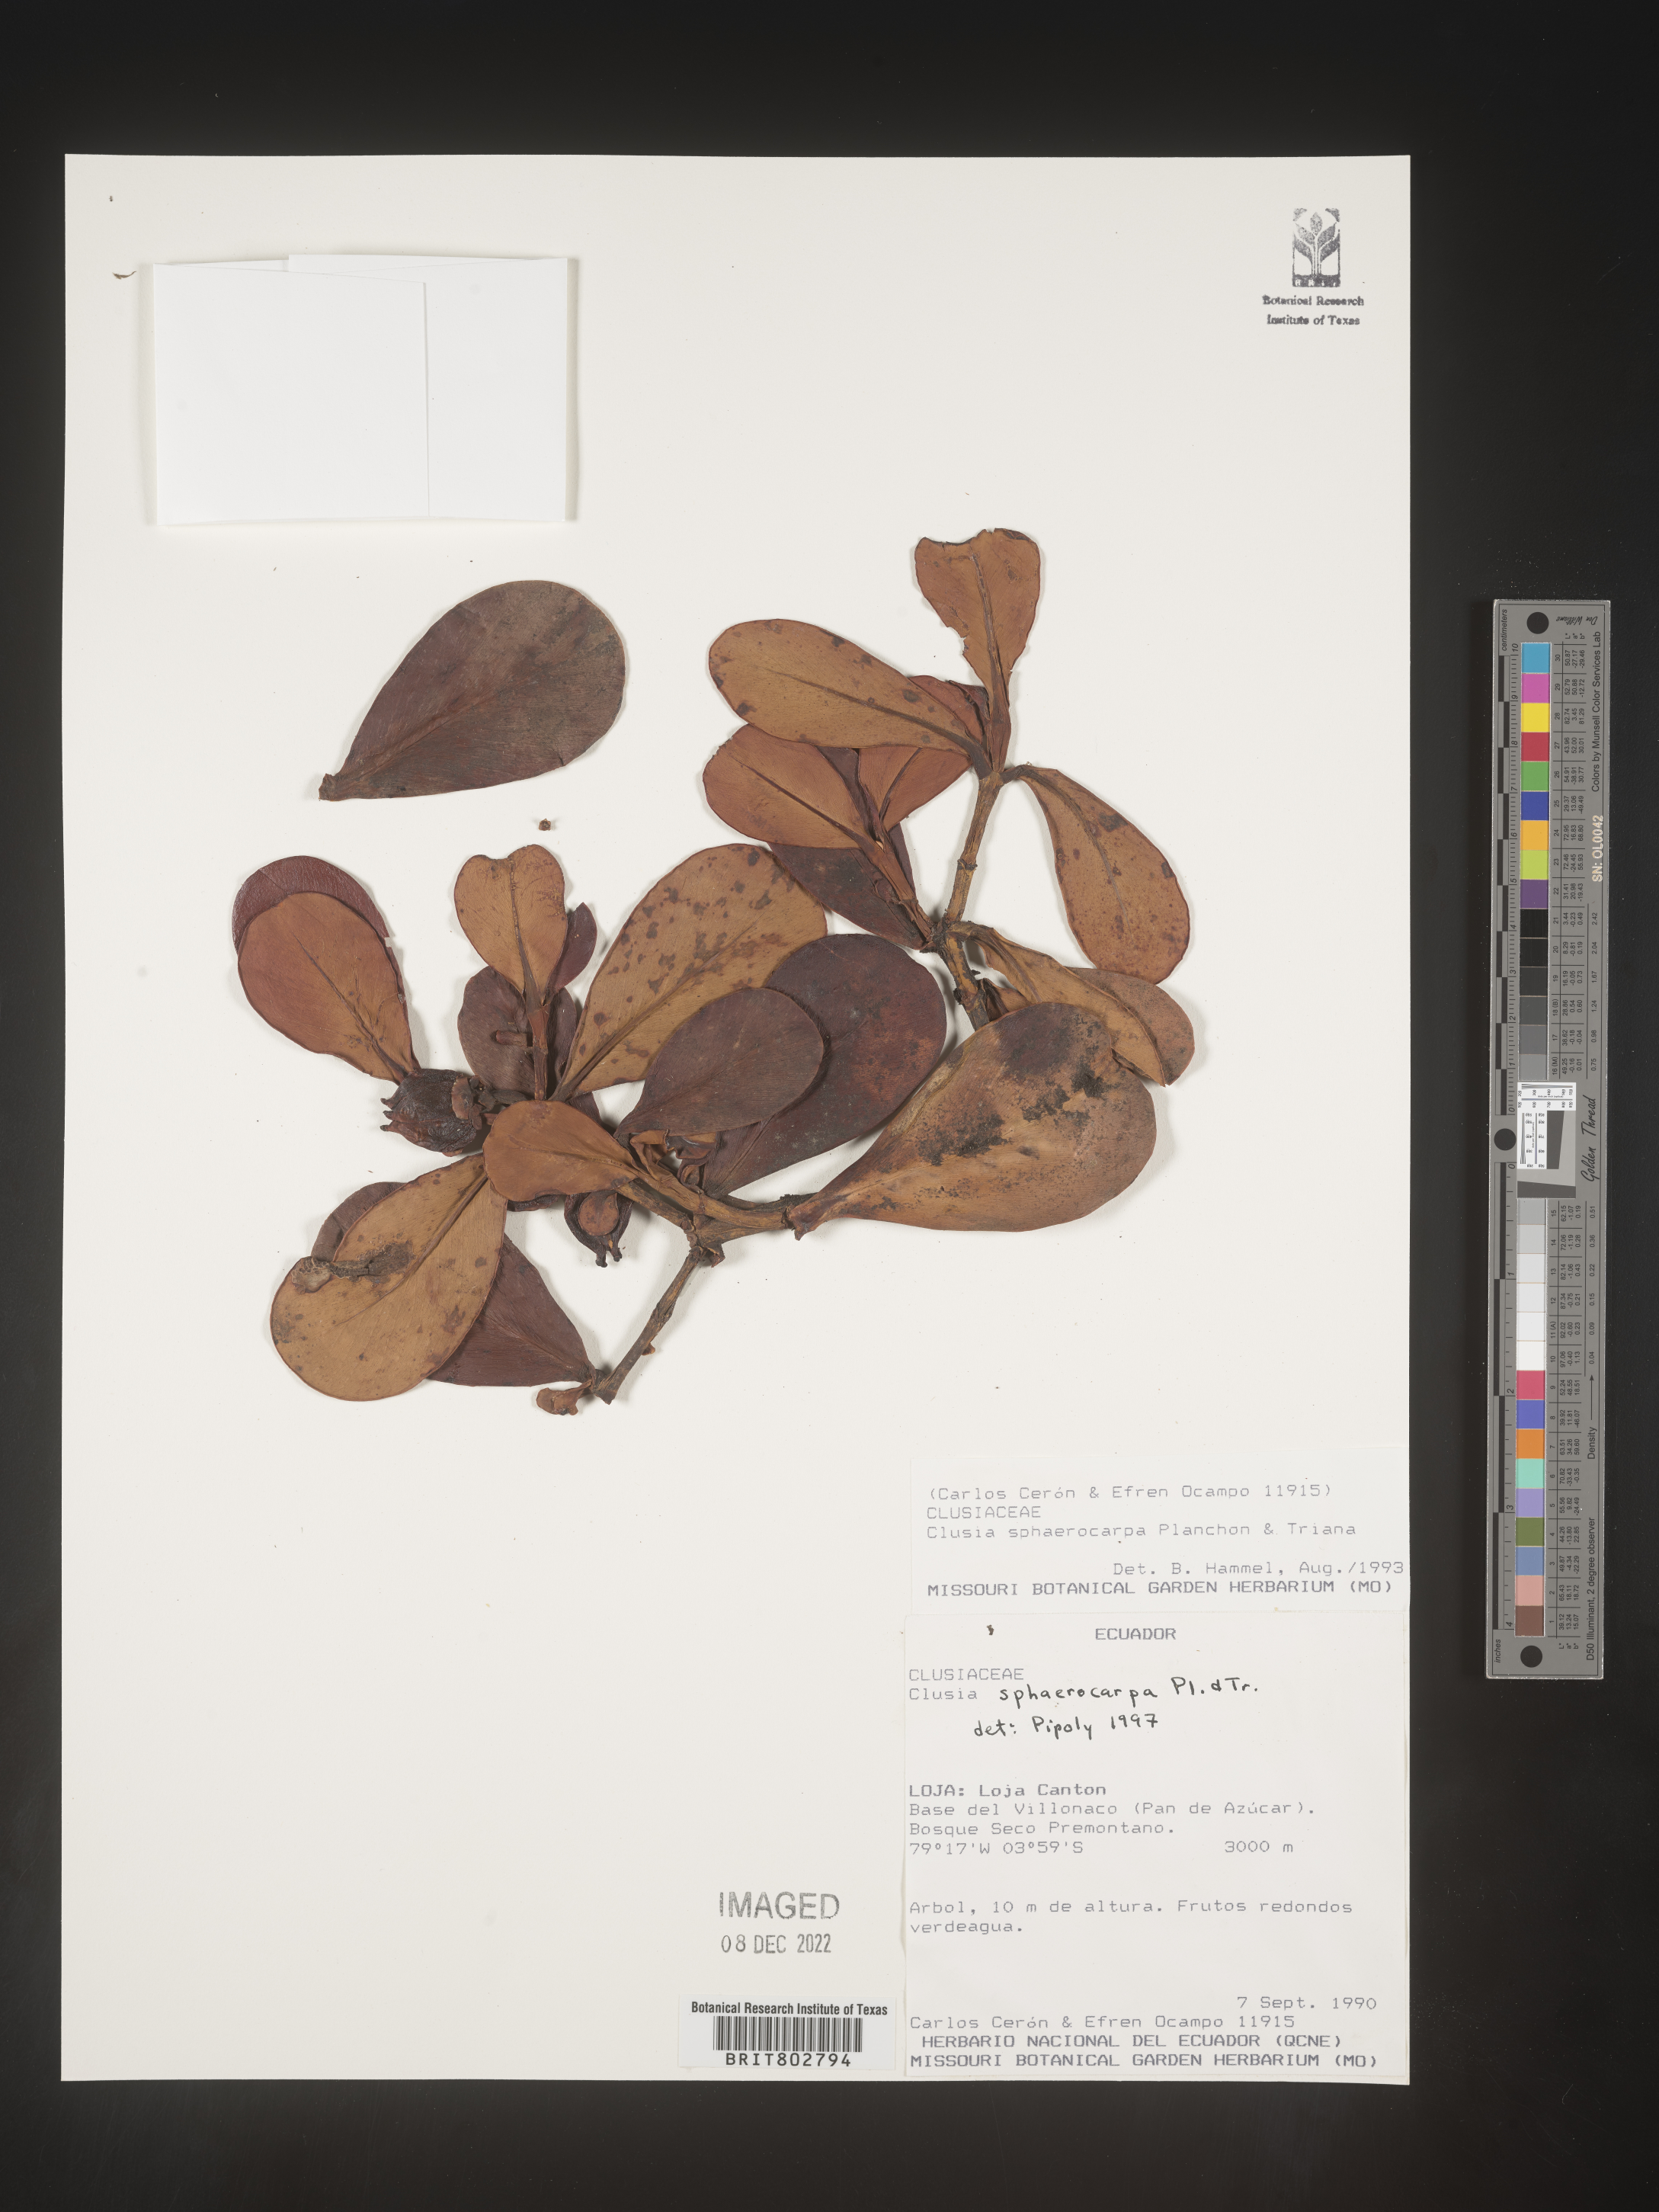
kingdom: Plantae
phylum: Tracheophyta
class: Magnoliopsida
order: Malpighiales
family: Clusiaceae
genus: Clusia
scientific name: Clusia sphaerocarpa
